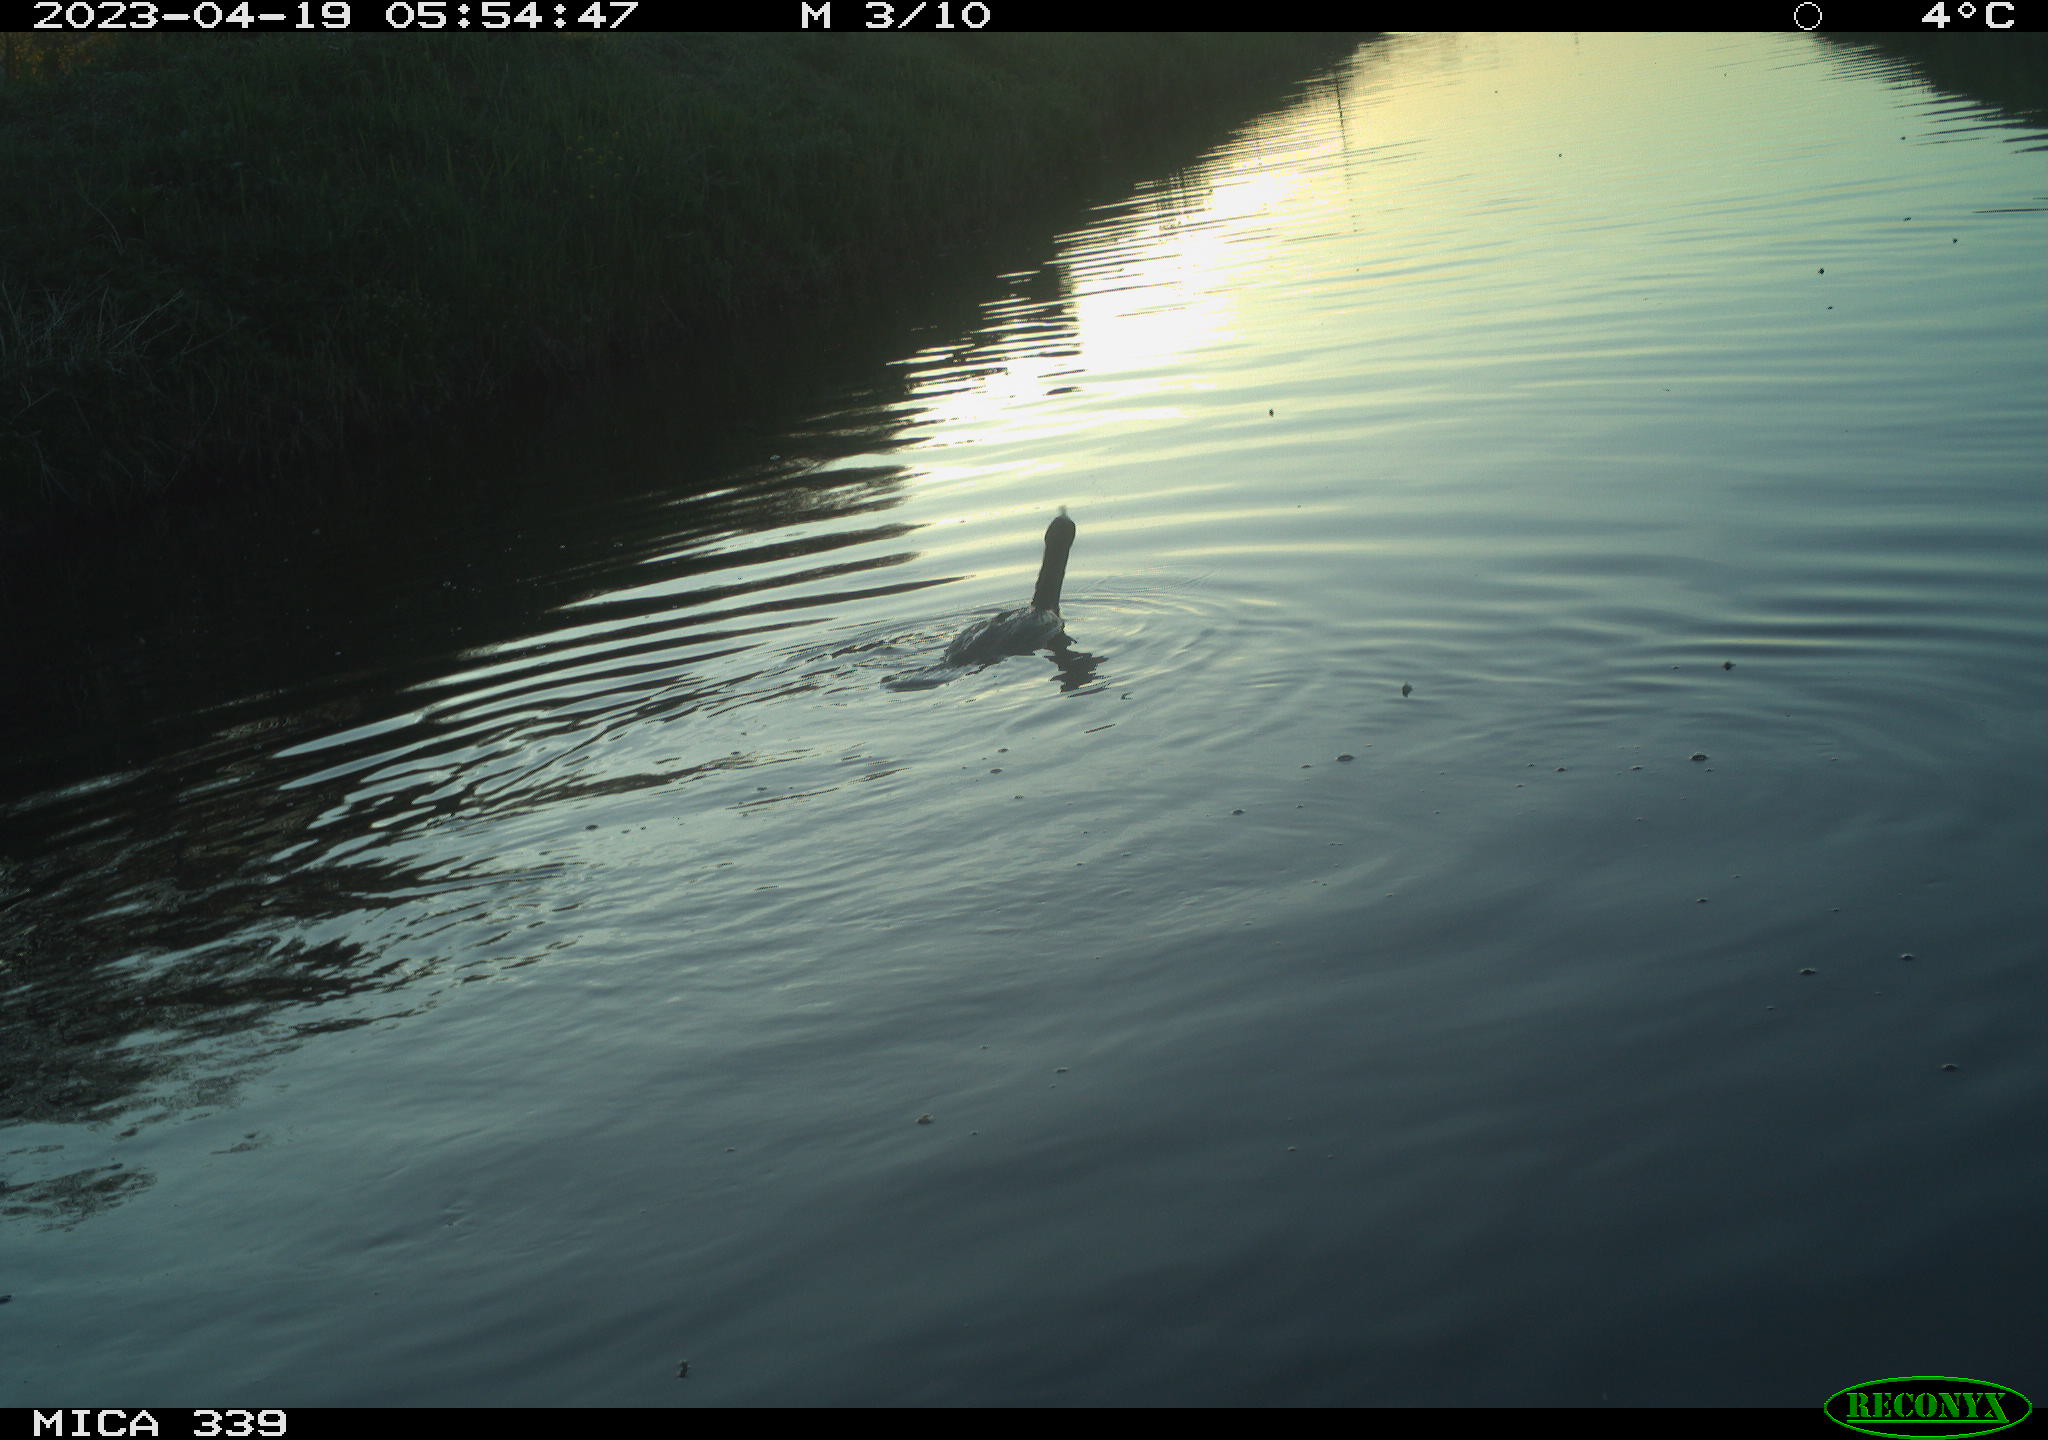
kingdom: Animalia
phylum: Chordata
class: Aves
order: Anseriformes
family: Anatidae
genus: Anas
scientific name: Anas
